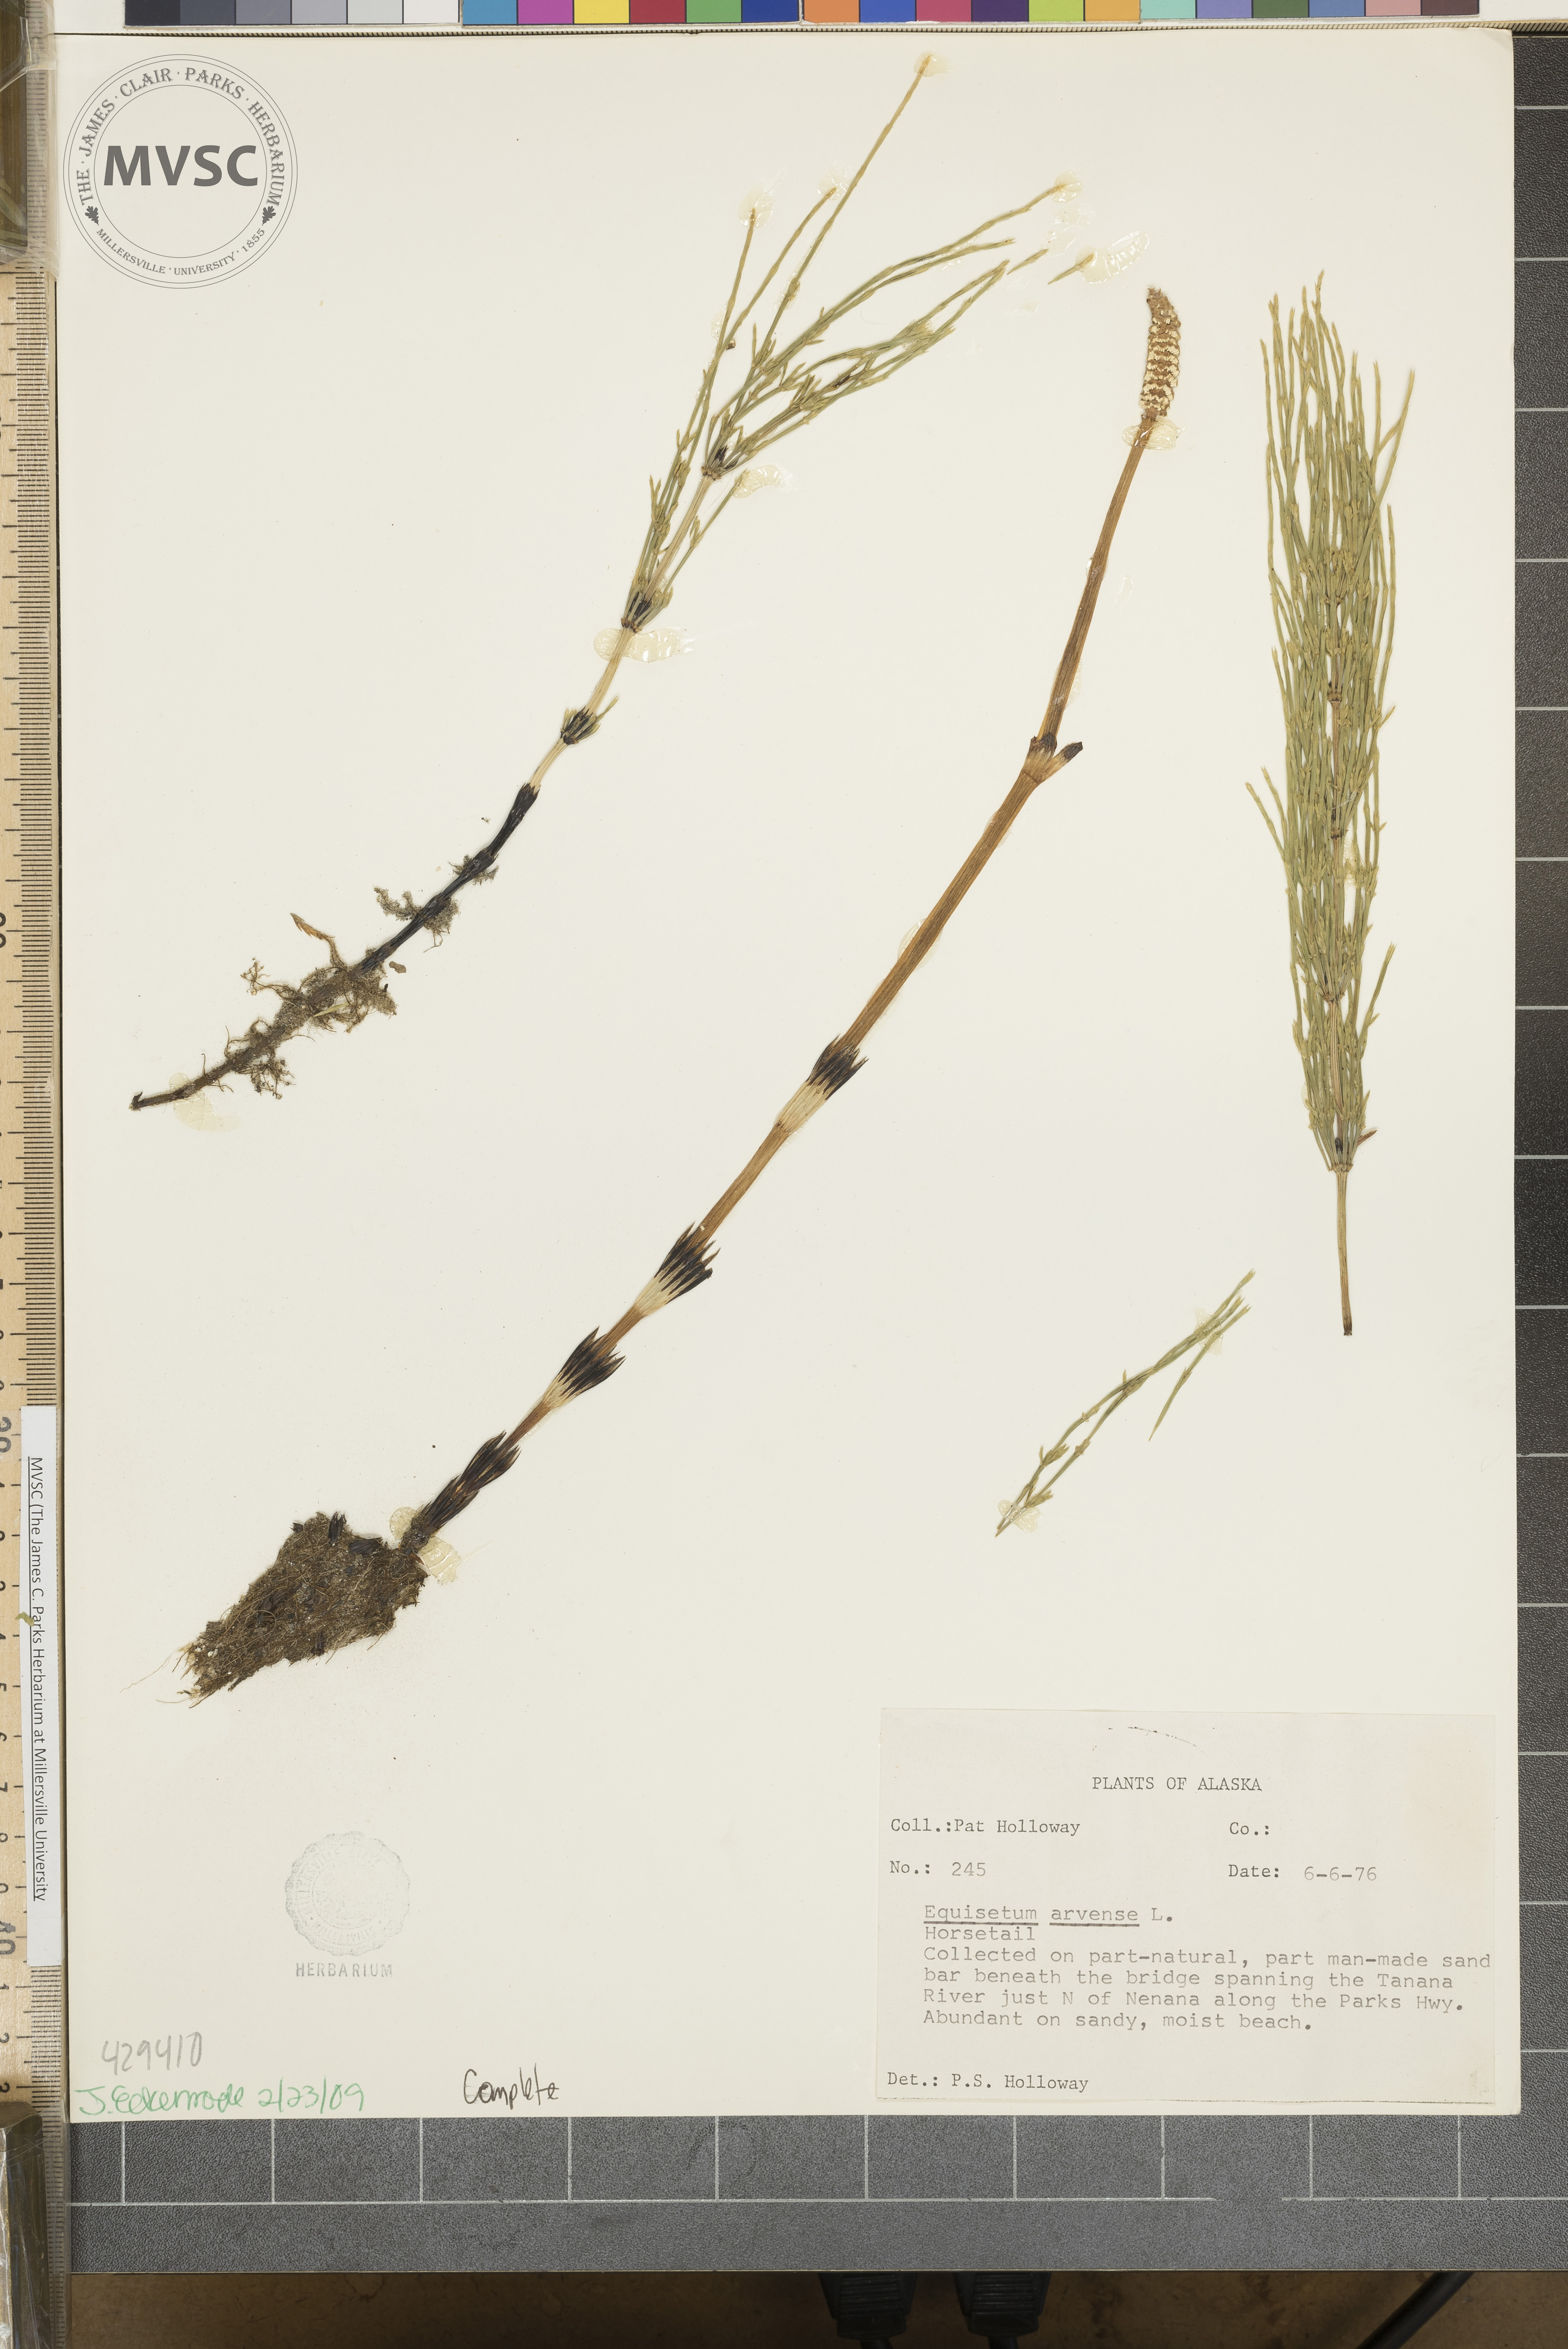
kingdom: Plantae
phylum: Tracheophyta
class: Polypodiopsida
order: Equisetales
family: Equisetaceae
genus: Equisetum
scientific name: Equisetum arvense
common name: Field horsetail
